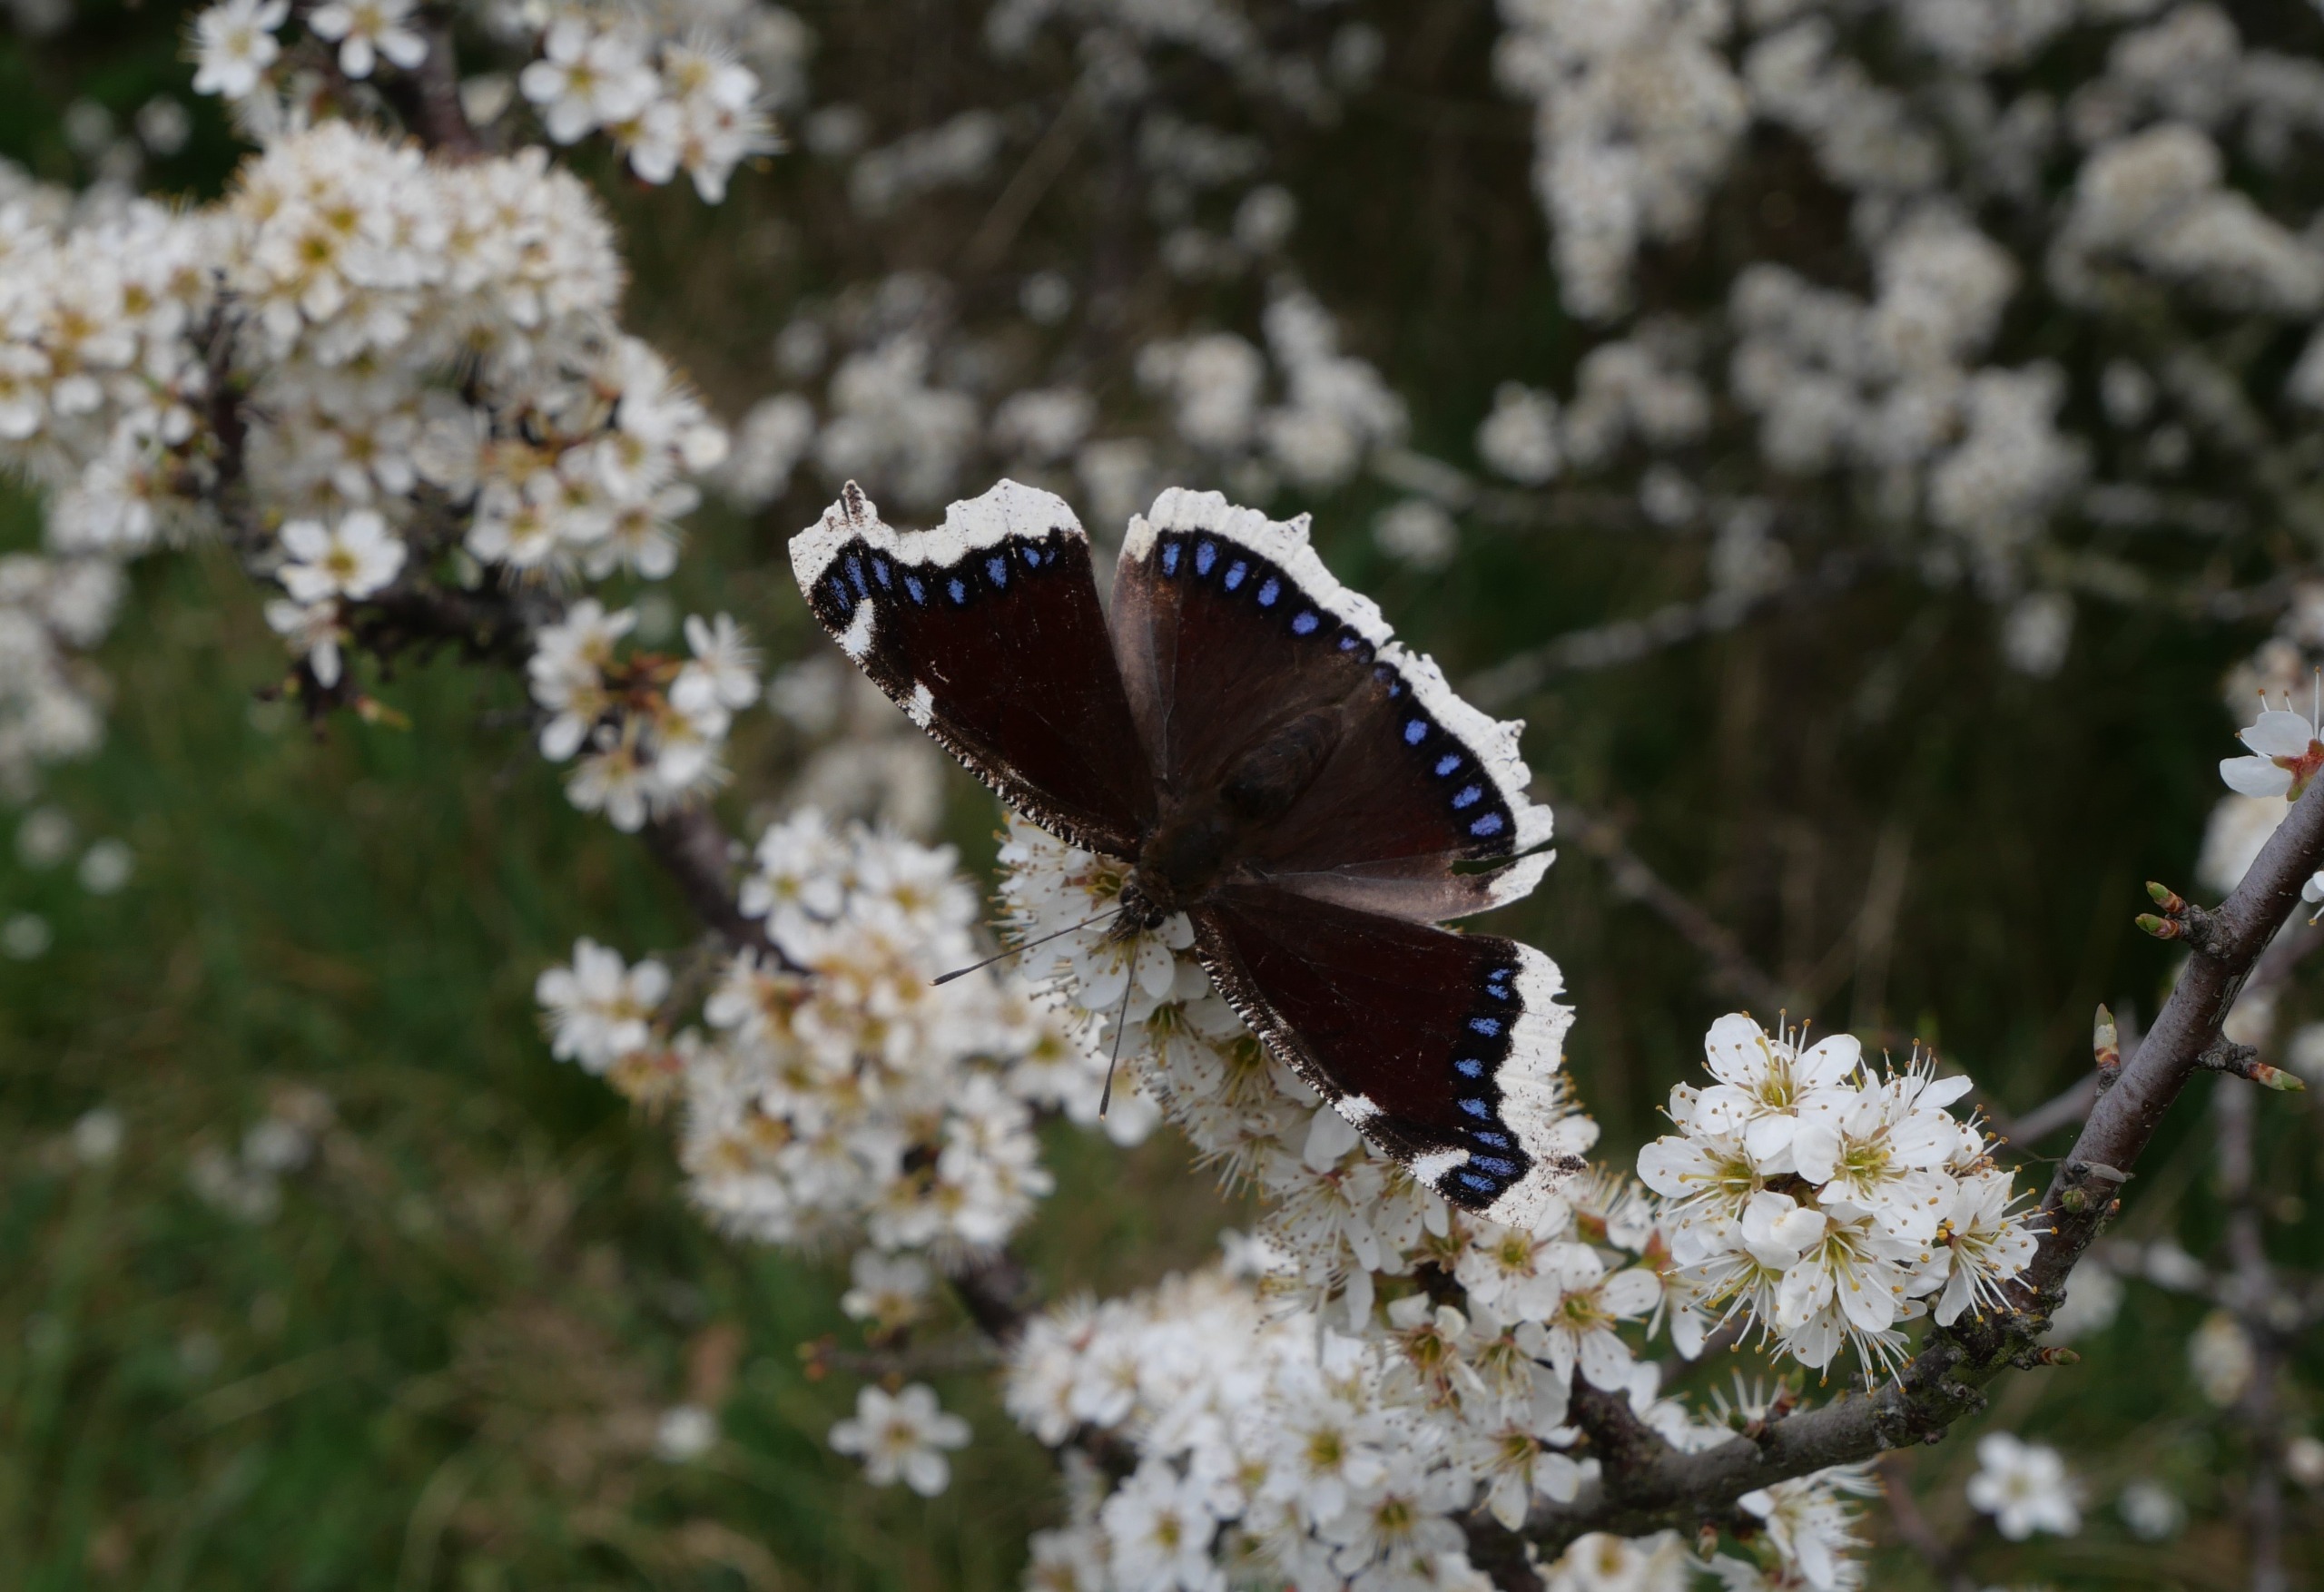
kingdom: Animalia
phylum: Arthropoda
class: Insecta
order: Lepidoptera
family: Nymphalidae
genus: Nymphalis
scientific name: Nymphalis antiopa
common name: Sørgekåbe
